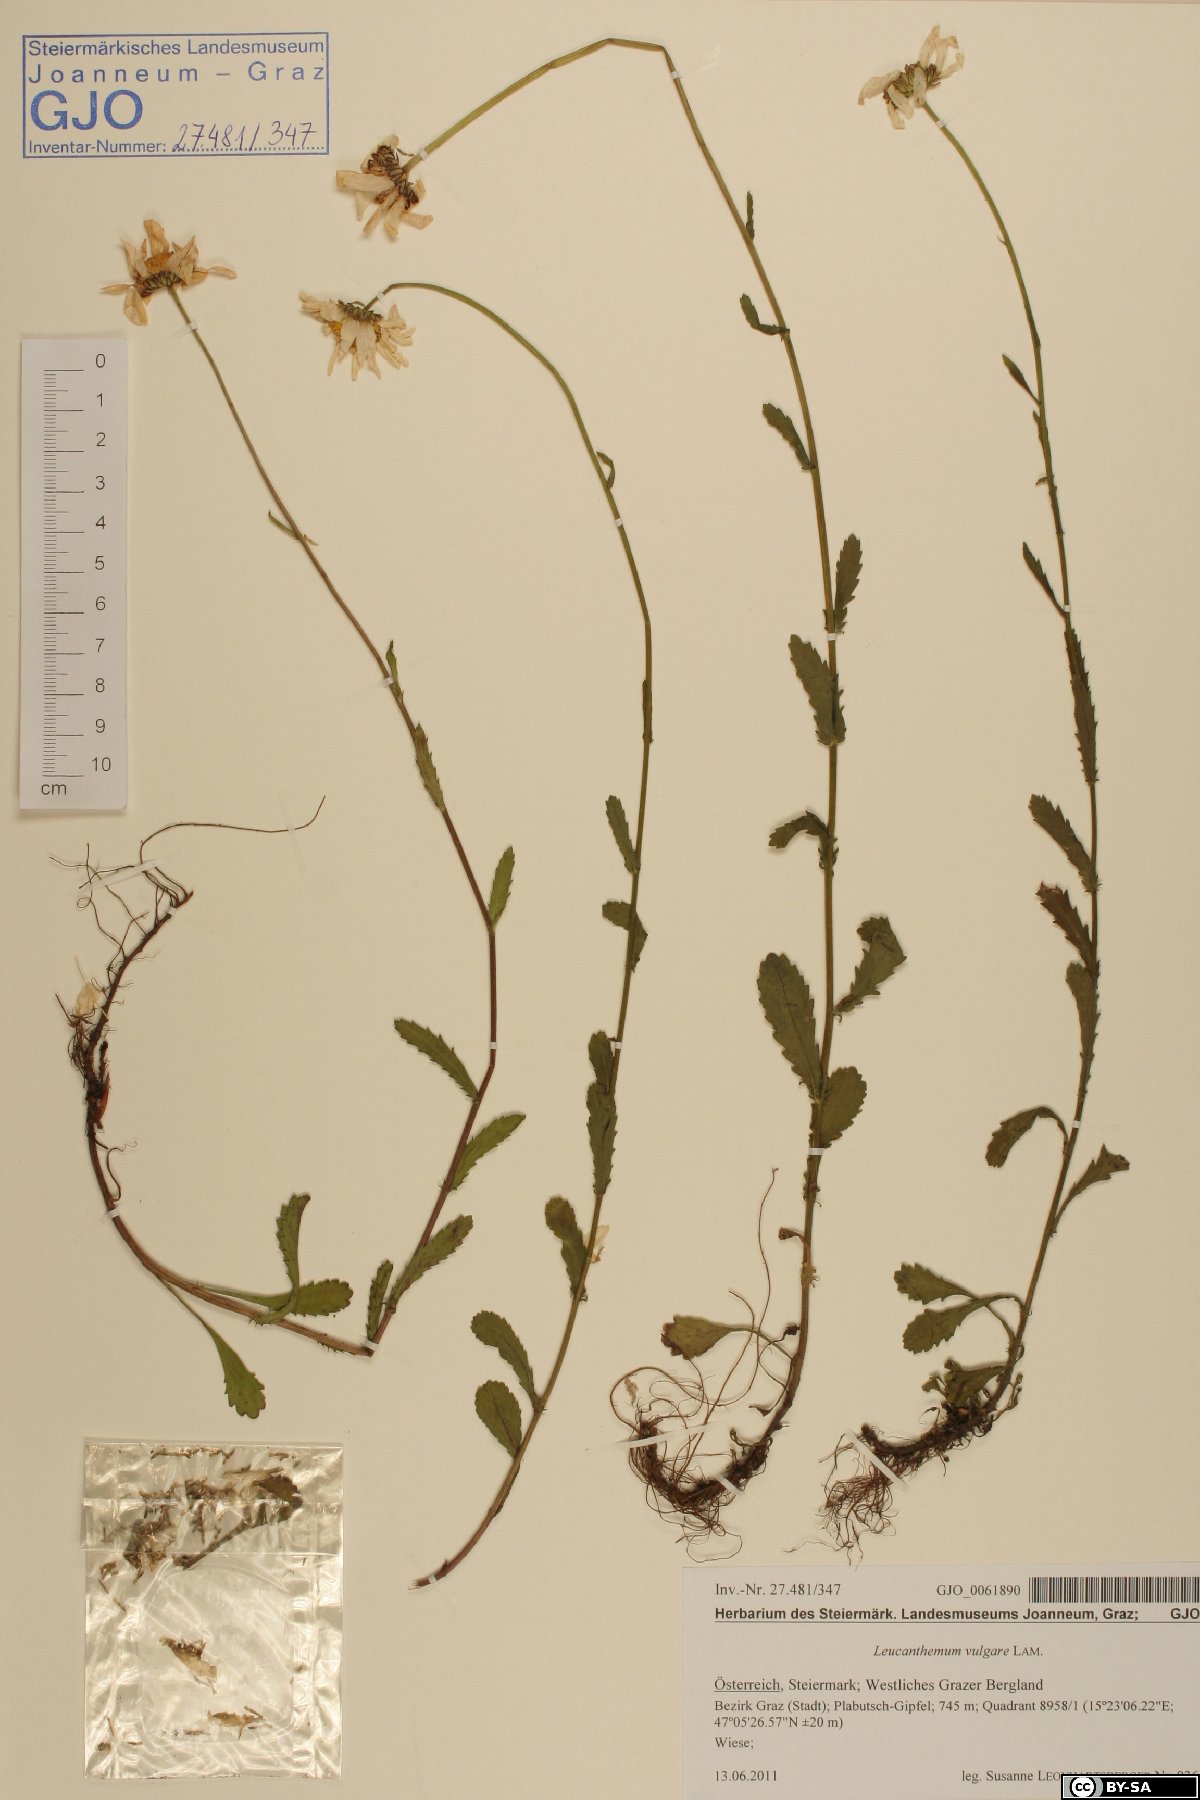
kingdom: Plantae
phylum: Tracheophyta
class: Magnoliopsida
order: Asterales
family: Asteraceae
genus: Leucanthemum
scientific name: Leucanthemum vulgare
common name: Oxeye daisy
